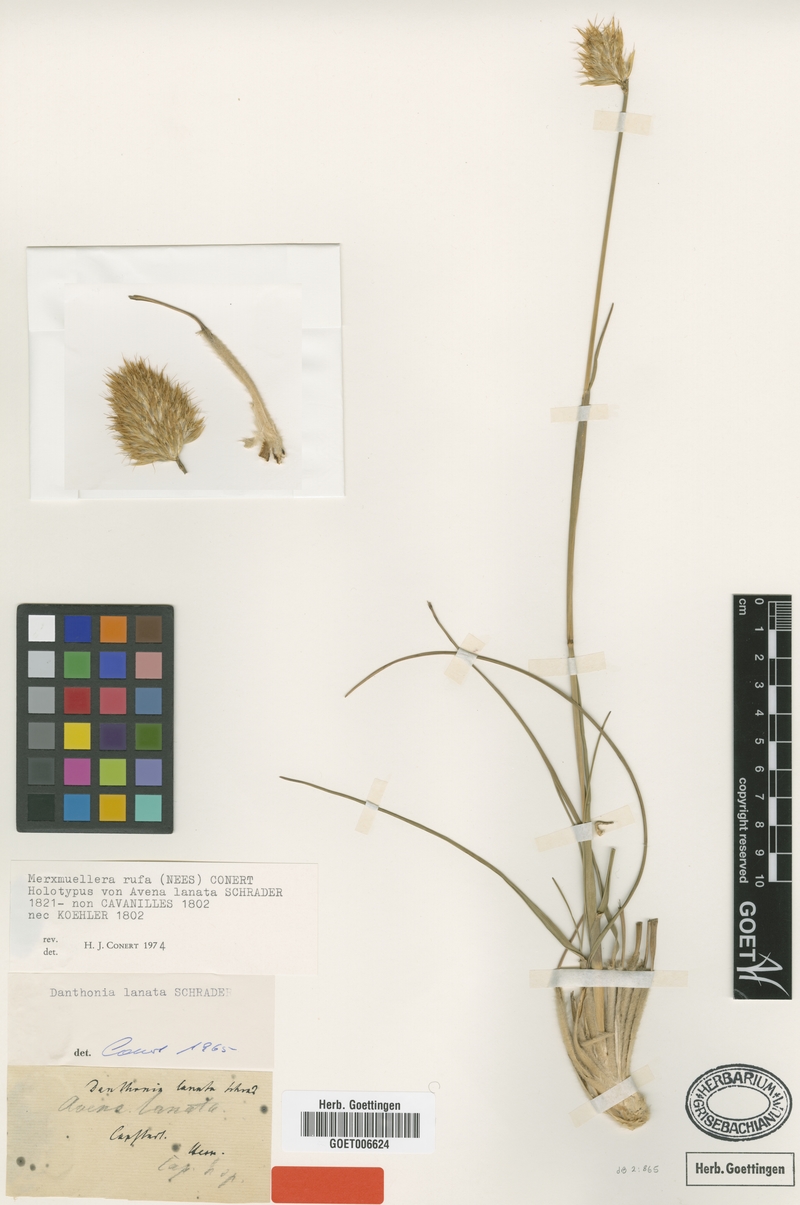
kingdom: Plantae
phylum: Tracheophyta
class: Liliopsida
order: Poales
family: Poaceae
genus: Geochloa
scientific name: Geochloa rufa
